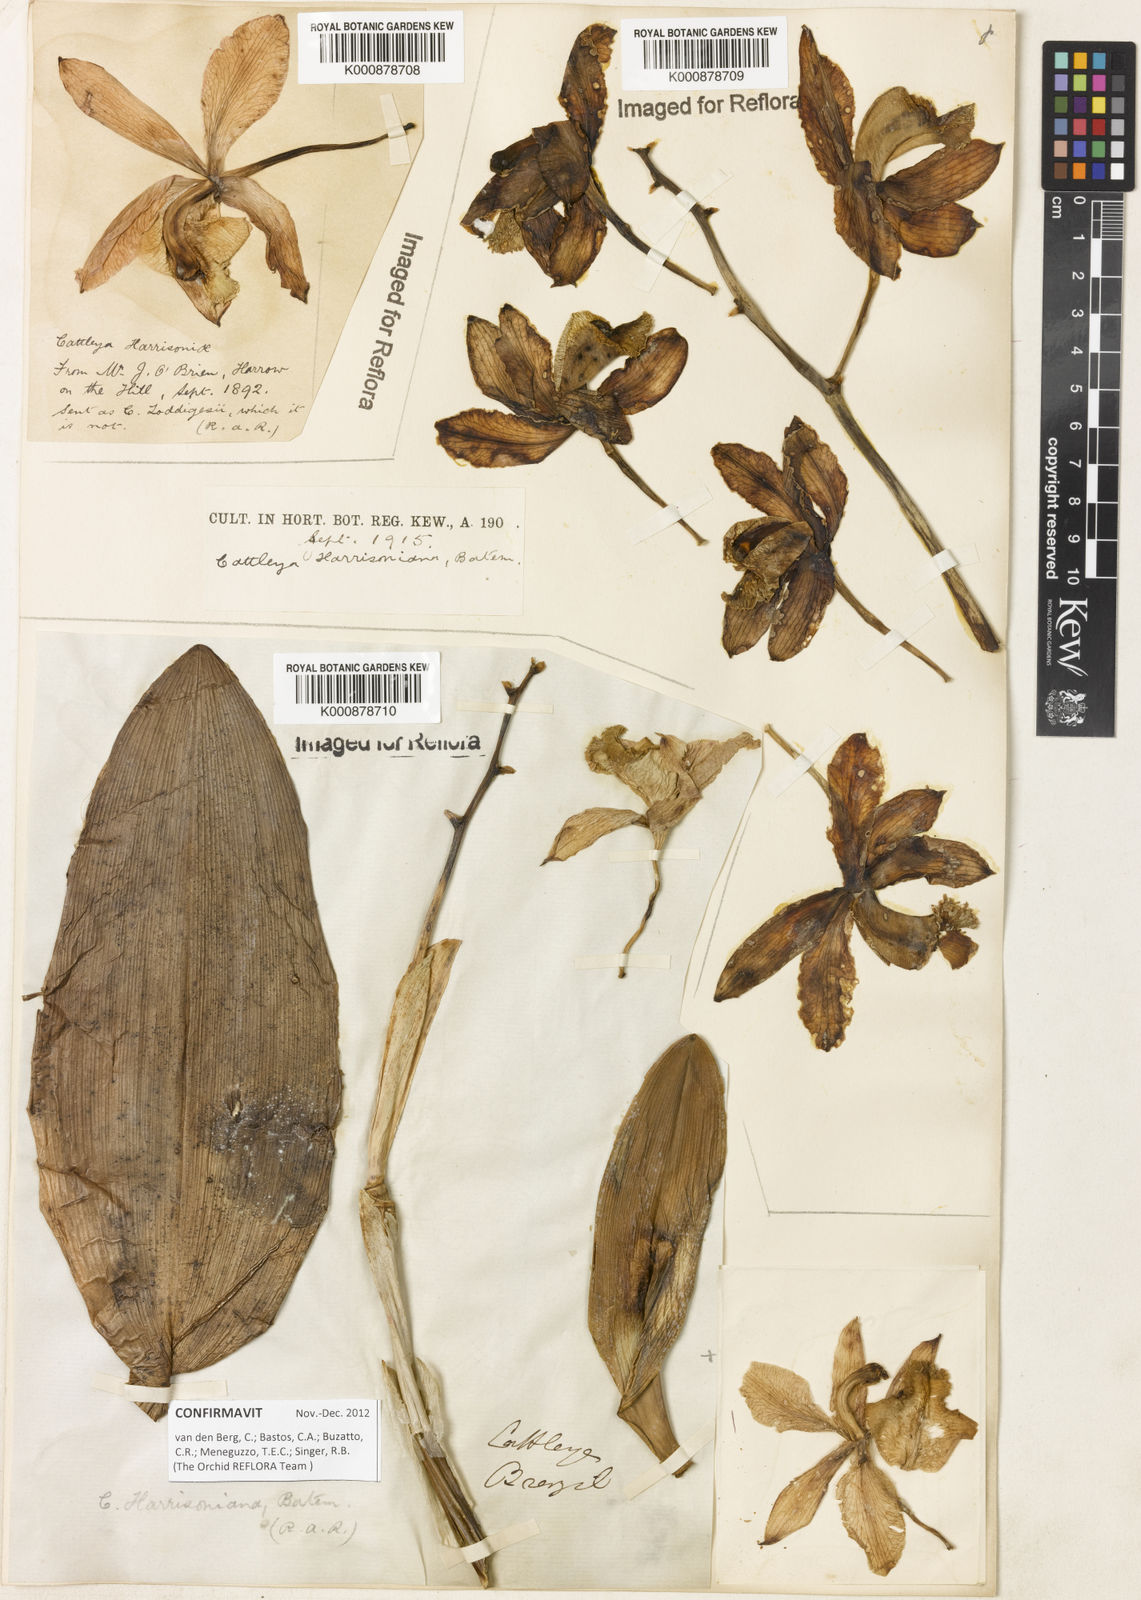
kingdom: Plantae
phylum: Tracheophyta
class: Liliopsida
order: Asparagales
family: Orchidaceae
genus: Cattleya
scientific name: Cattleya harrisoniana
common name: Harrison's cattleya
